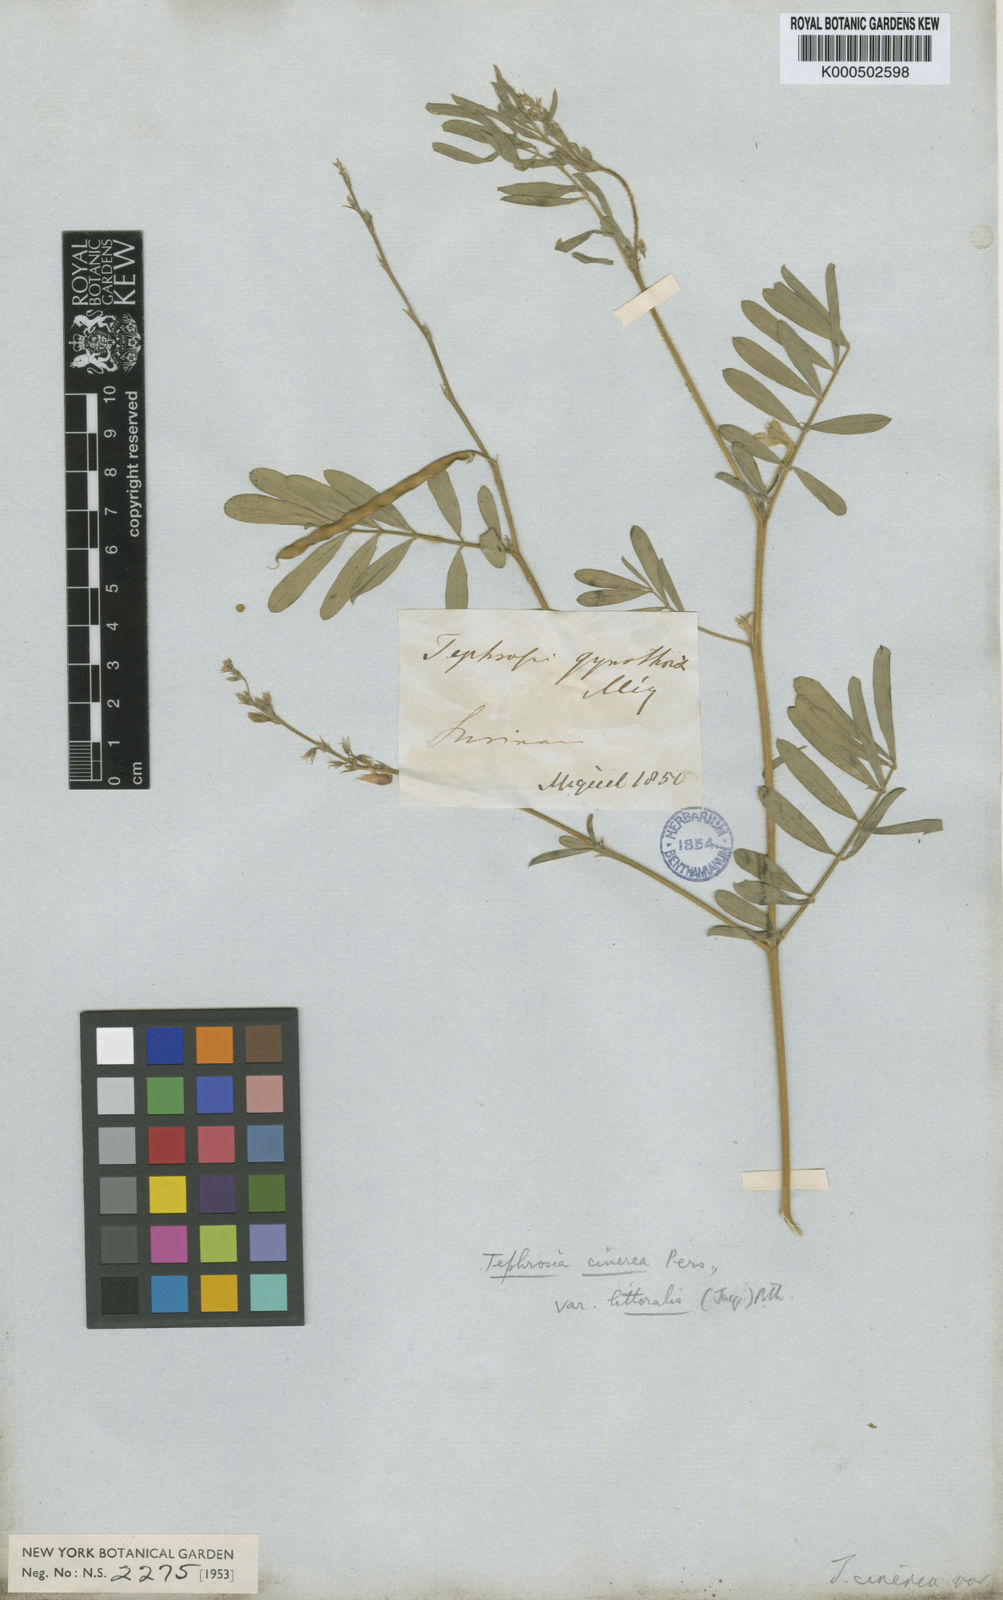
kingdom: Plantae
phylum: Tracheophyta
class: Magnoliopsida
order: Fabales
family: Fabaceae
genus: Tephrosia
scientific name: Tephrosia cinerea
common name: Ashen hoarypea
